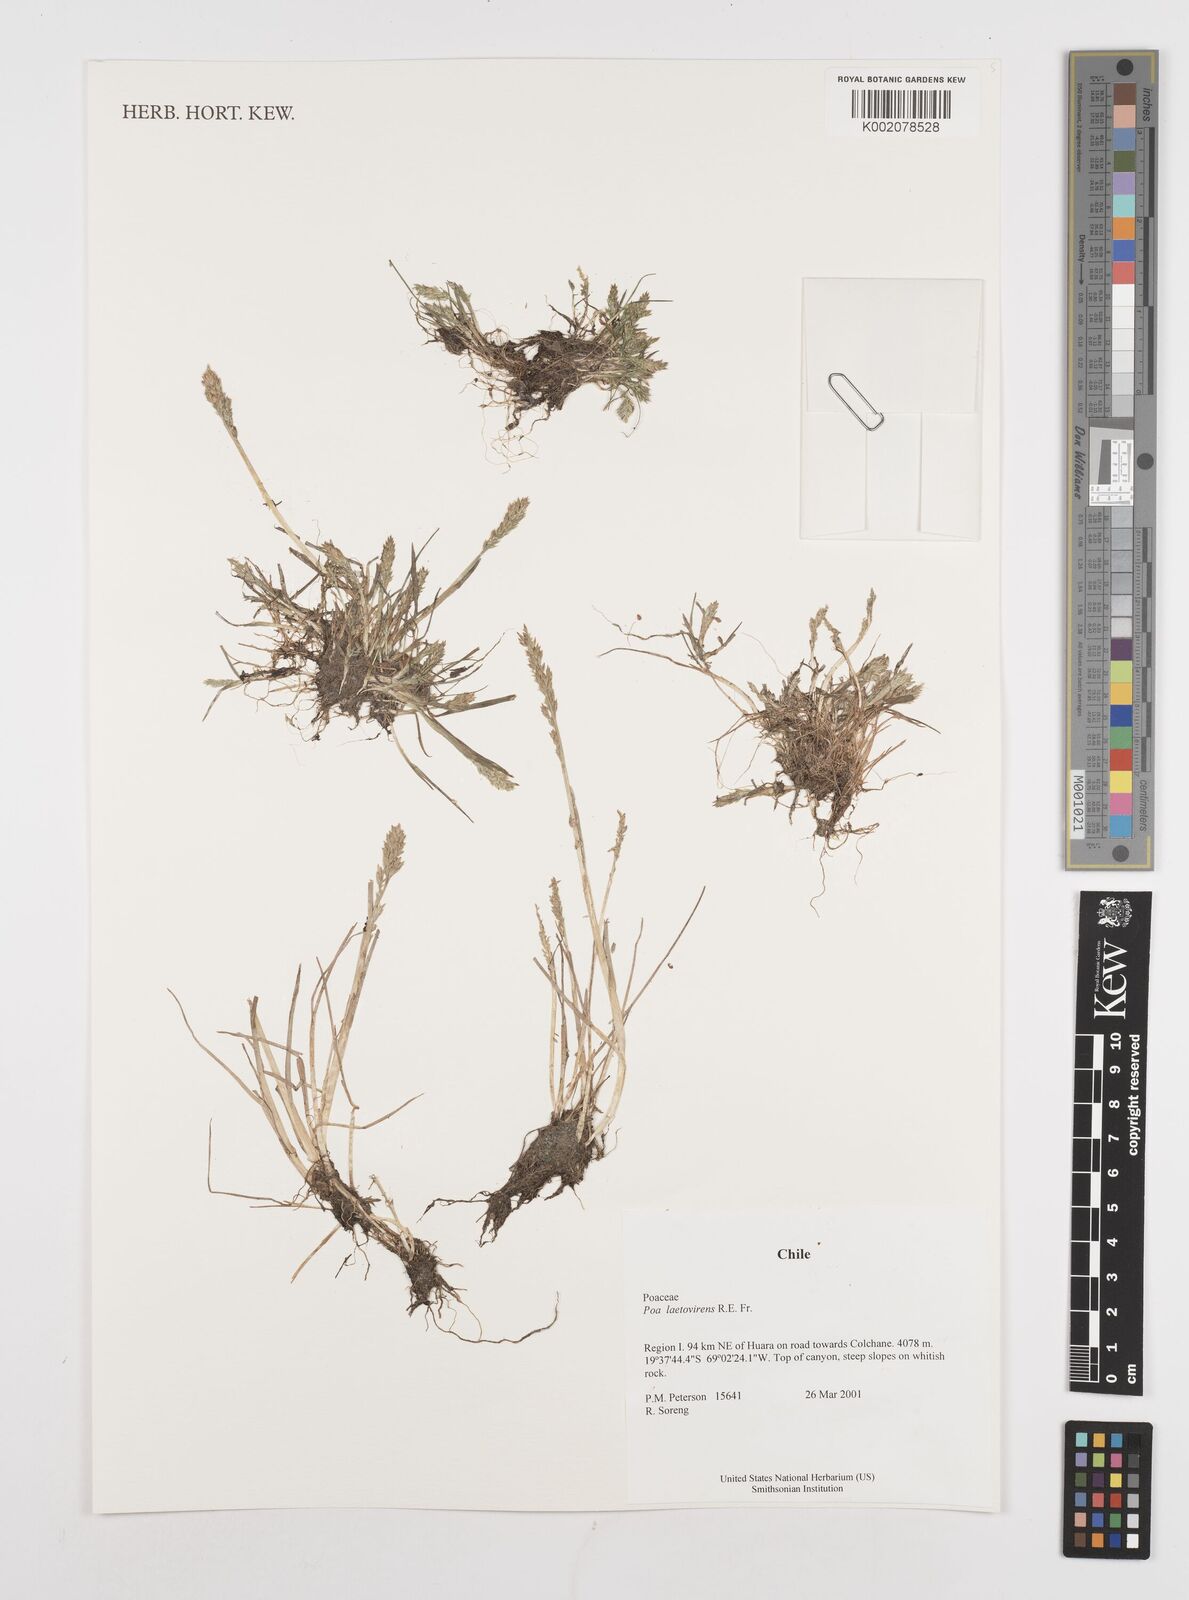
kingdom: Plantae
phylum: Tracheophyta
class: Liliopsida
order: Poales
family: Poaceae
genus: Poa
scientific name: Poa laetevirens
